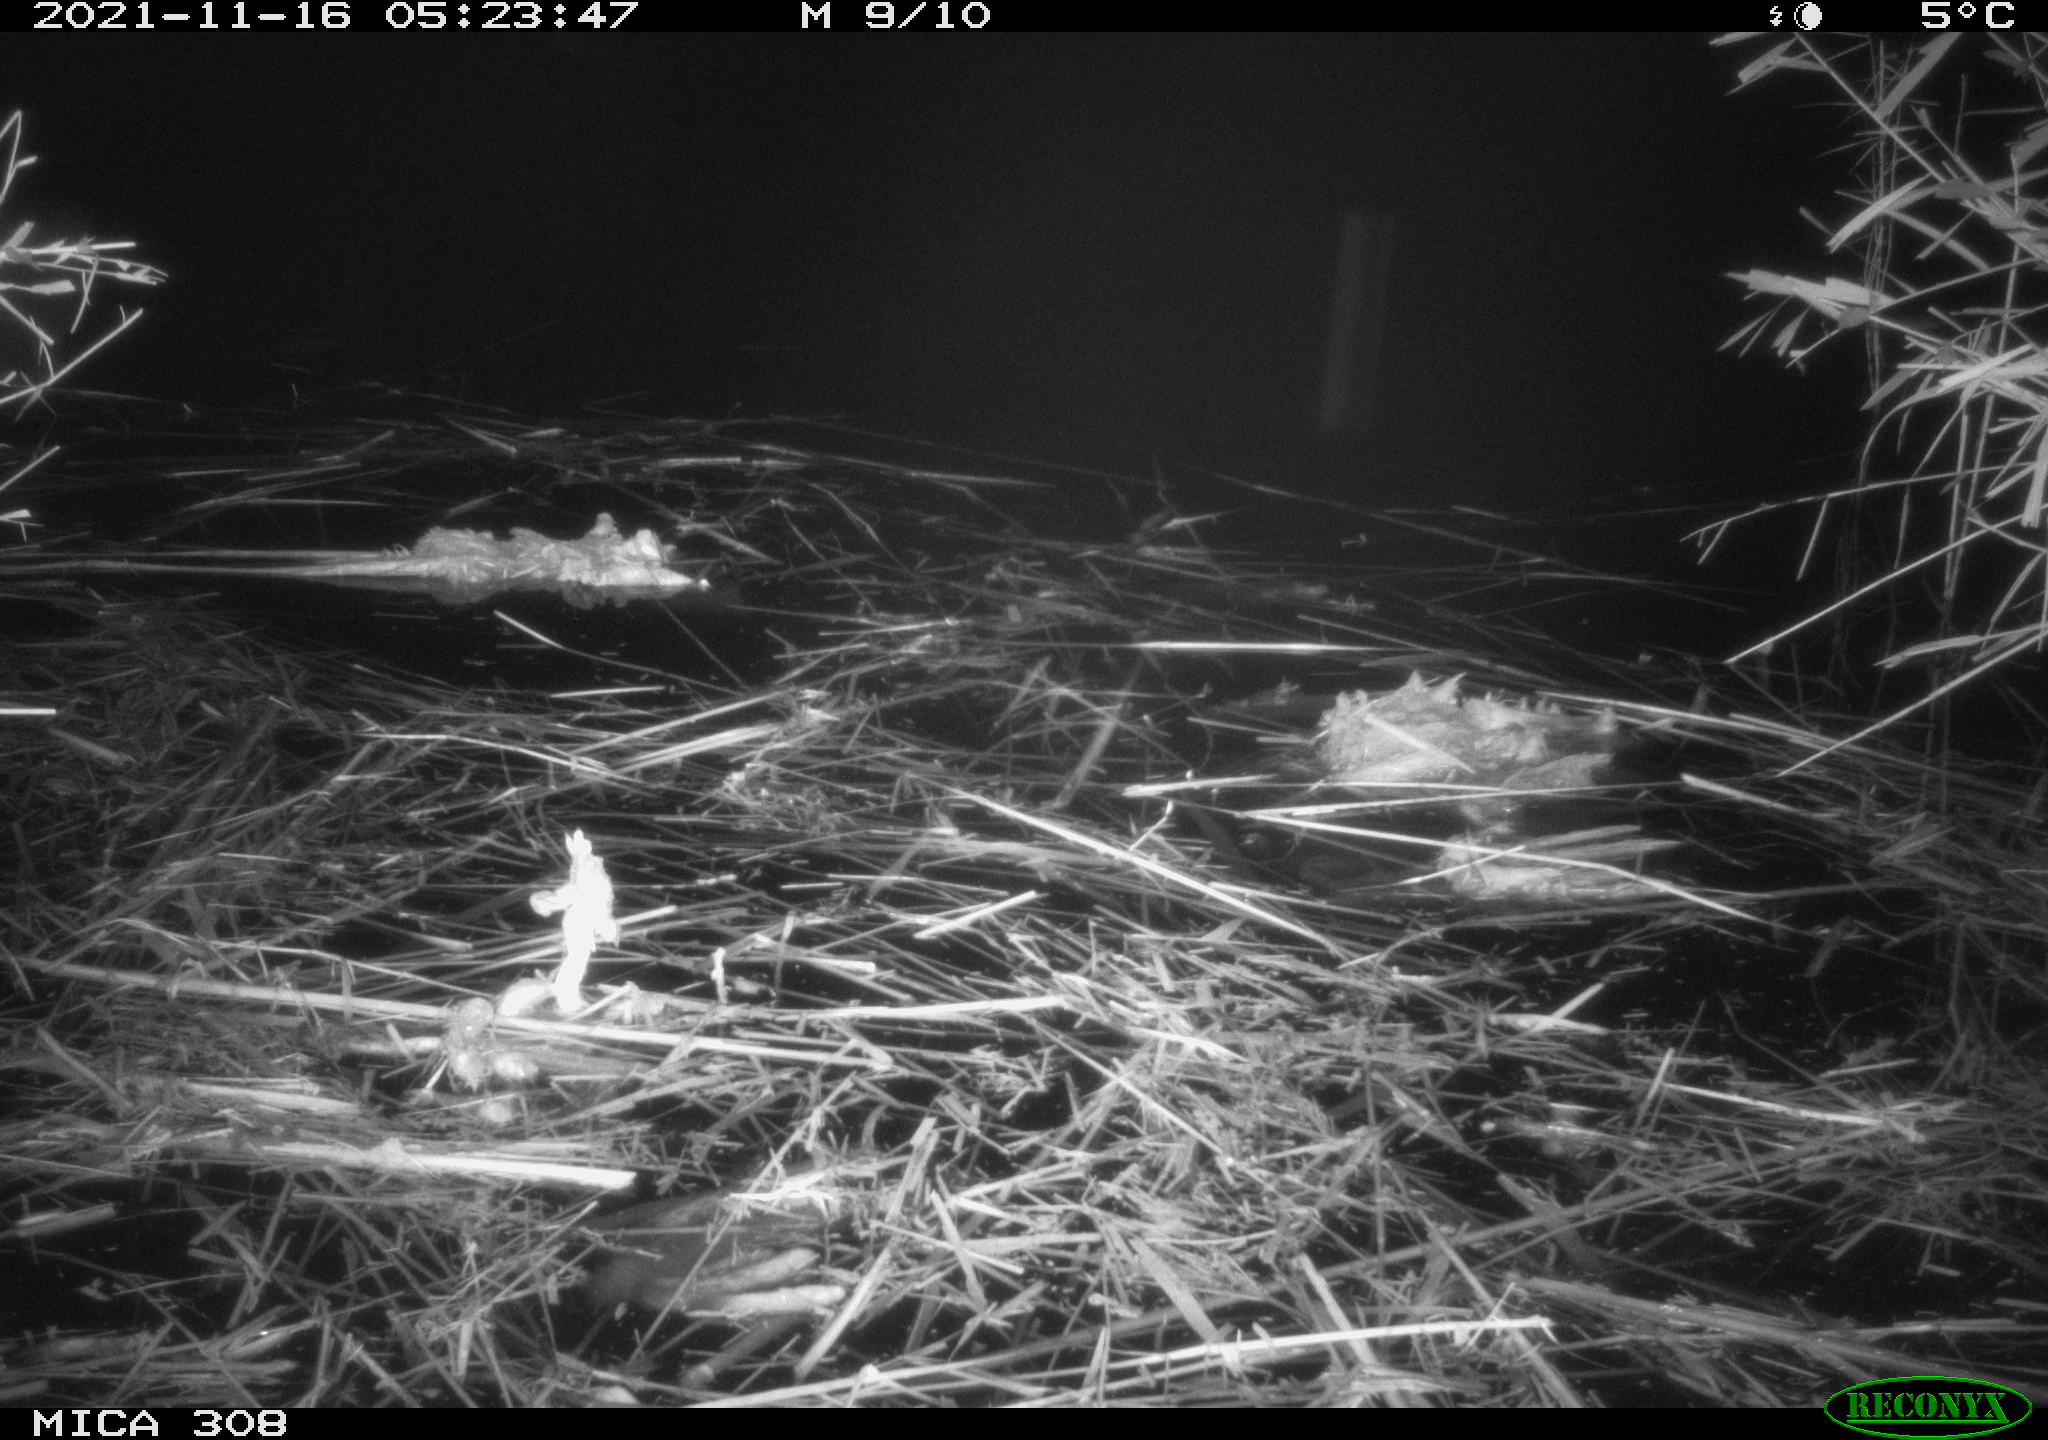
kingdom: Animalia
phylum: Chordata
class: Mammalia
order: Rodentia
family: Muridae
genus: Rattus
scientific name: Rattus norvegicus
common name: Brown rat
